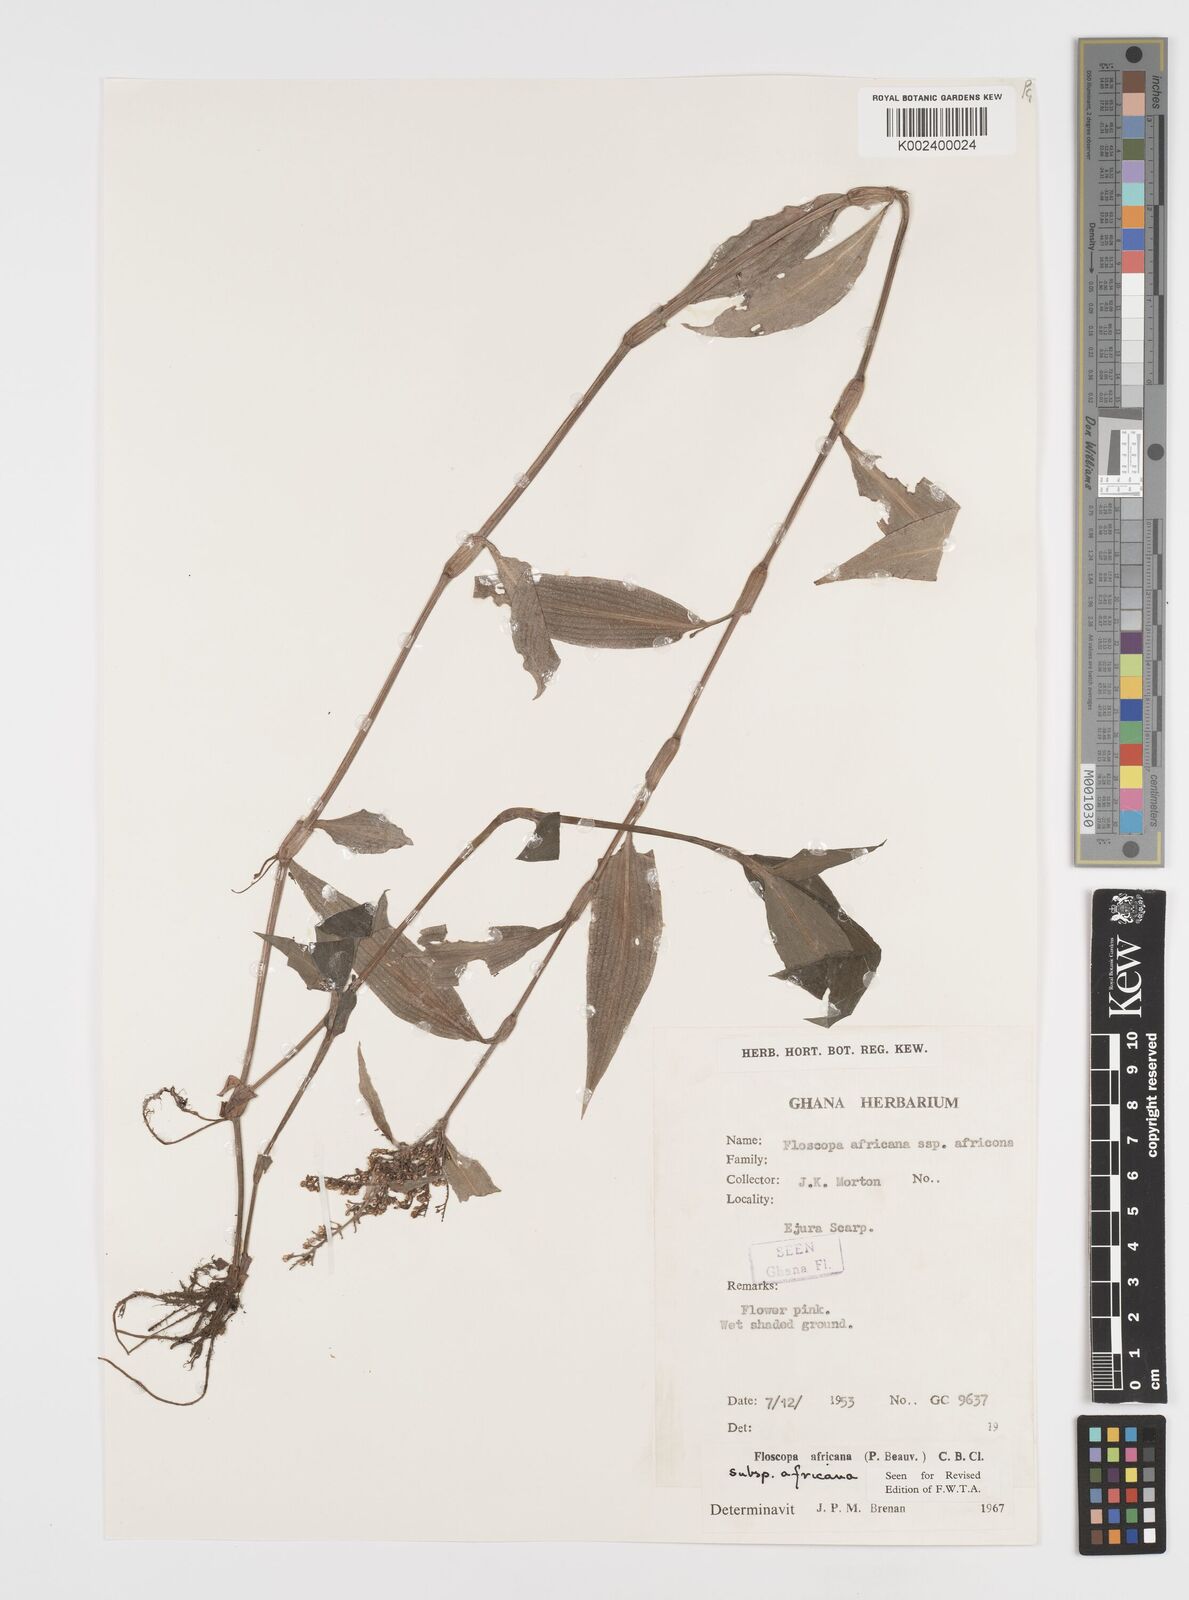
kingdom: Plantae
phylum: Tracheophyta
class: Liliopsida
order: Commelinales
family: Commelinaceae
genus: Floscopa
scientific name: Floscopa africana
